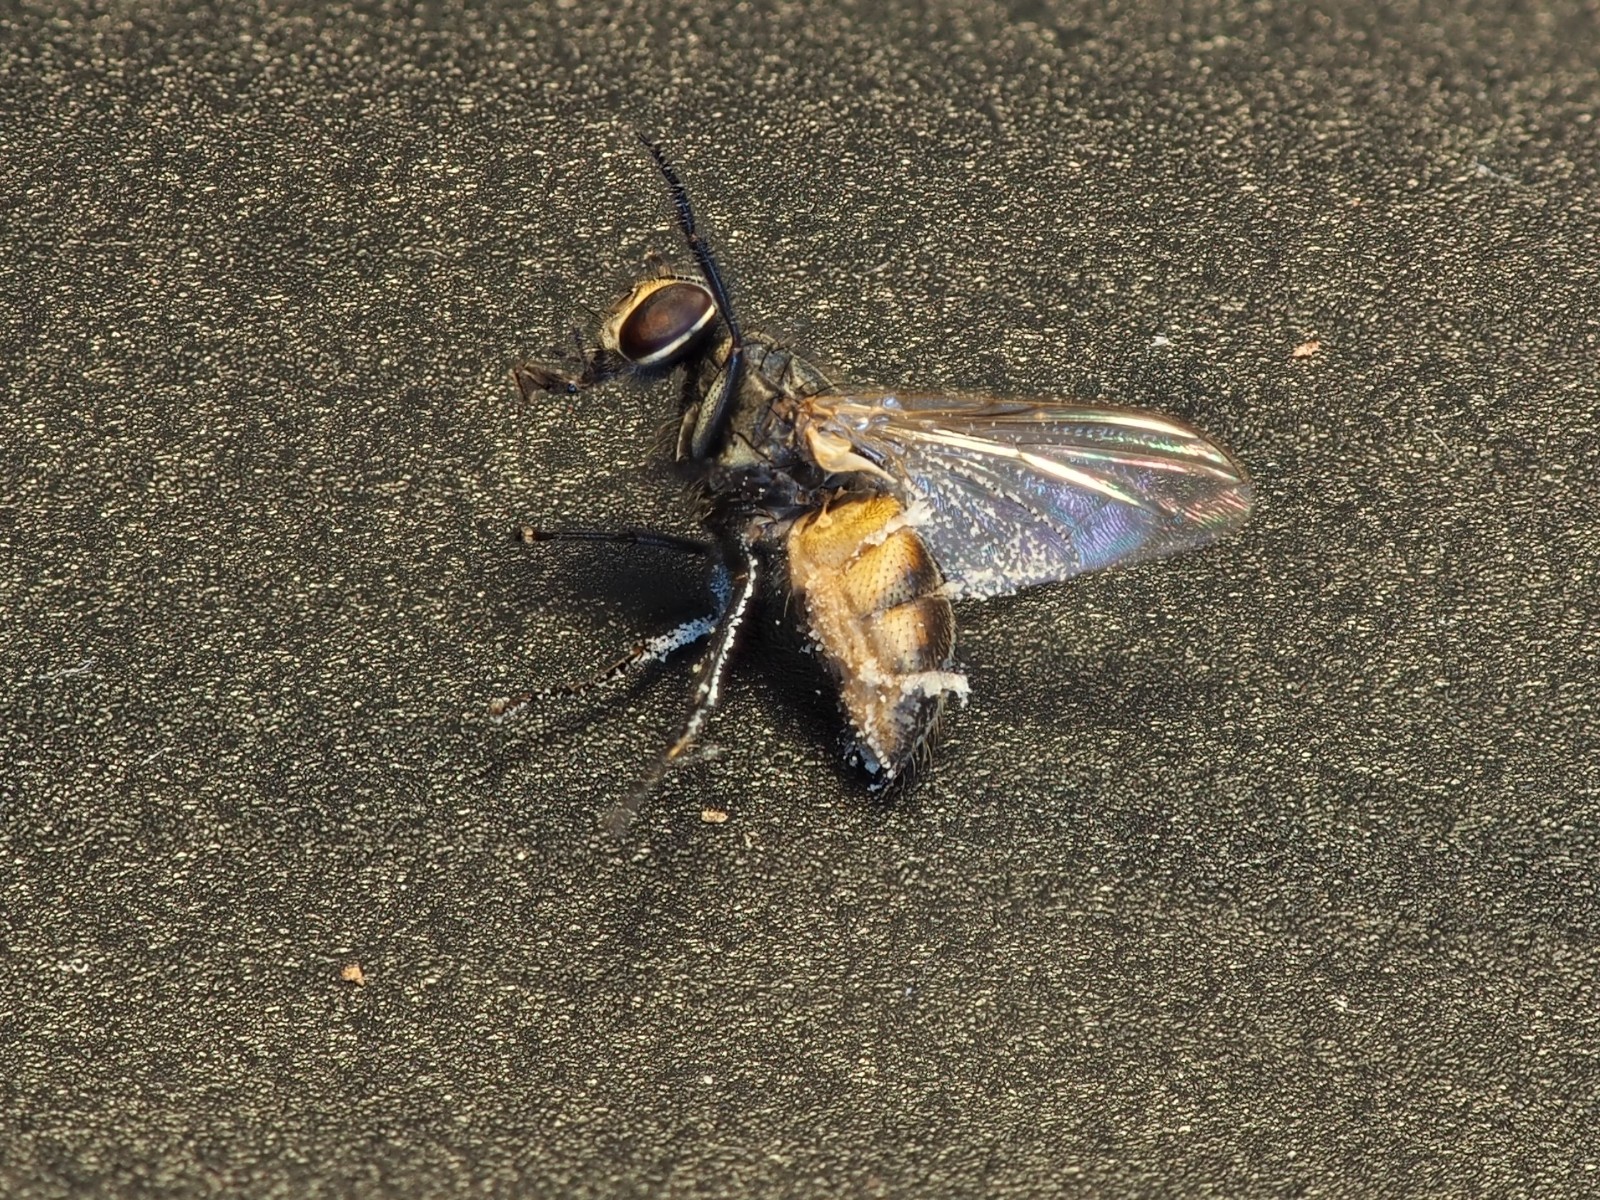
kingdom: Fungi
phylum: Entomophthoromycota
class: Entomophthoromycetes
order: Entomophthorales
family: Entomophthoraceae
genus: Entomophthora
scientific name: Entomophthora muscae
